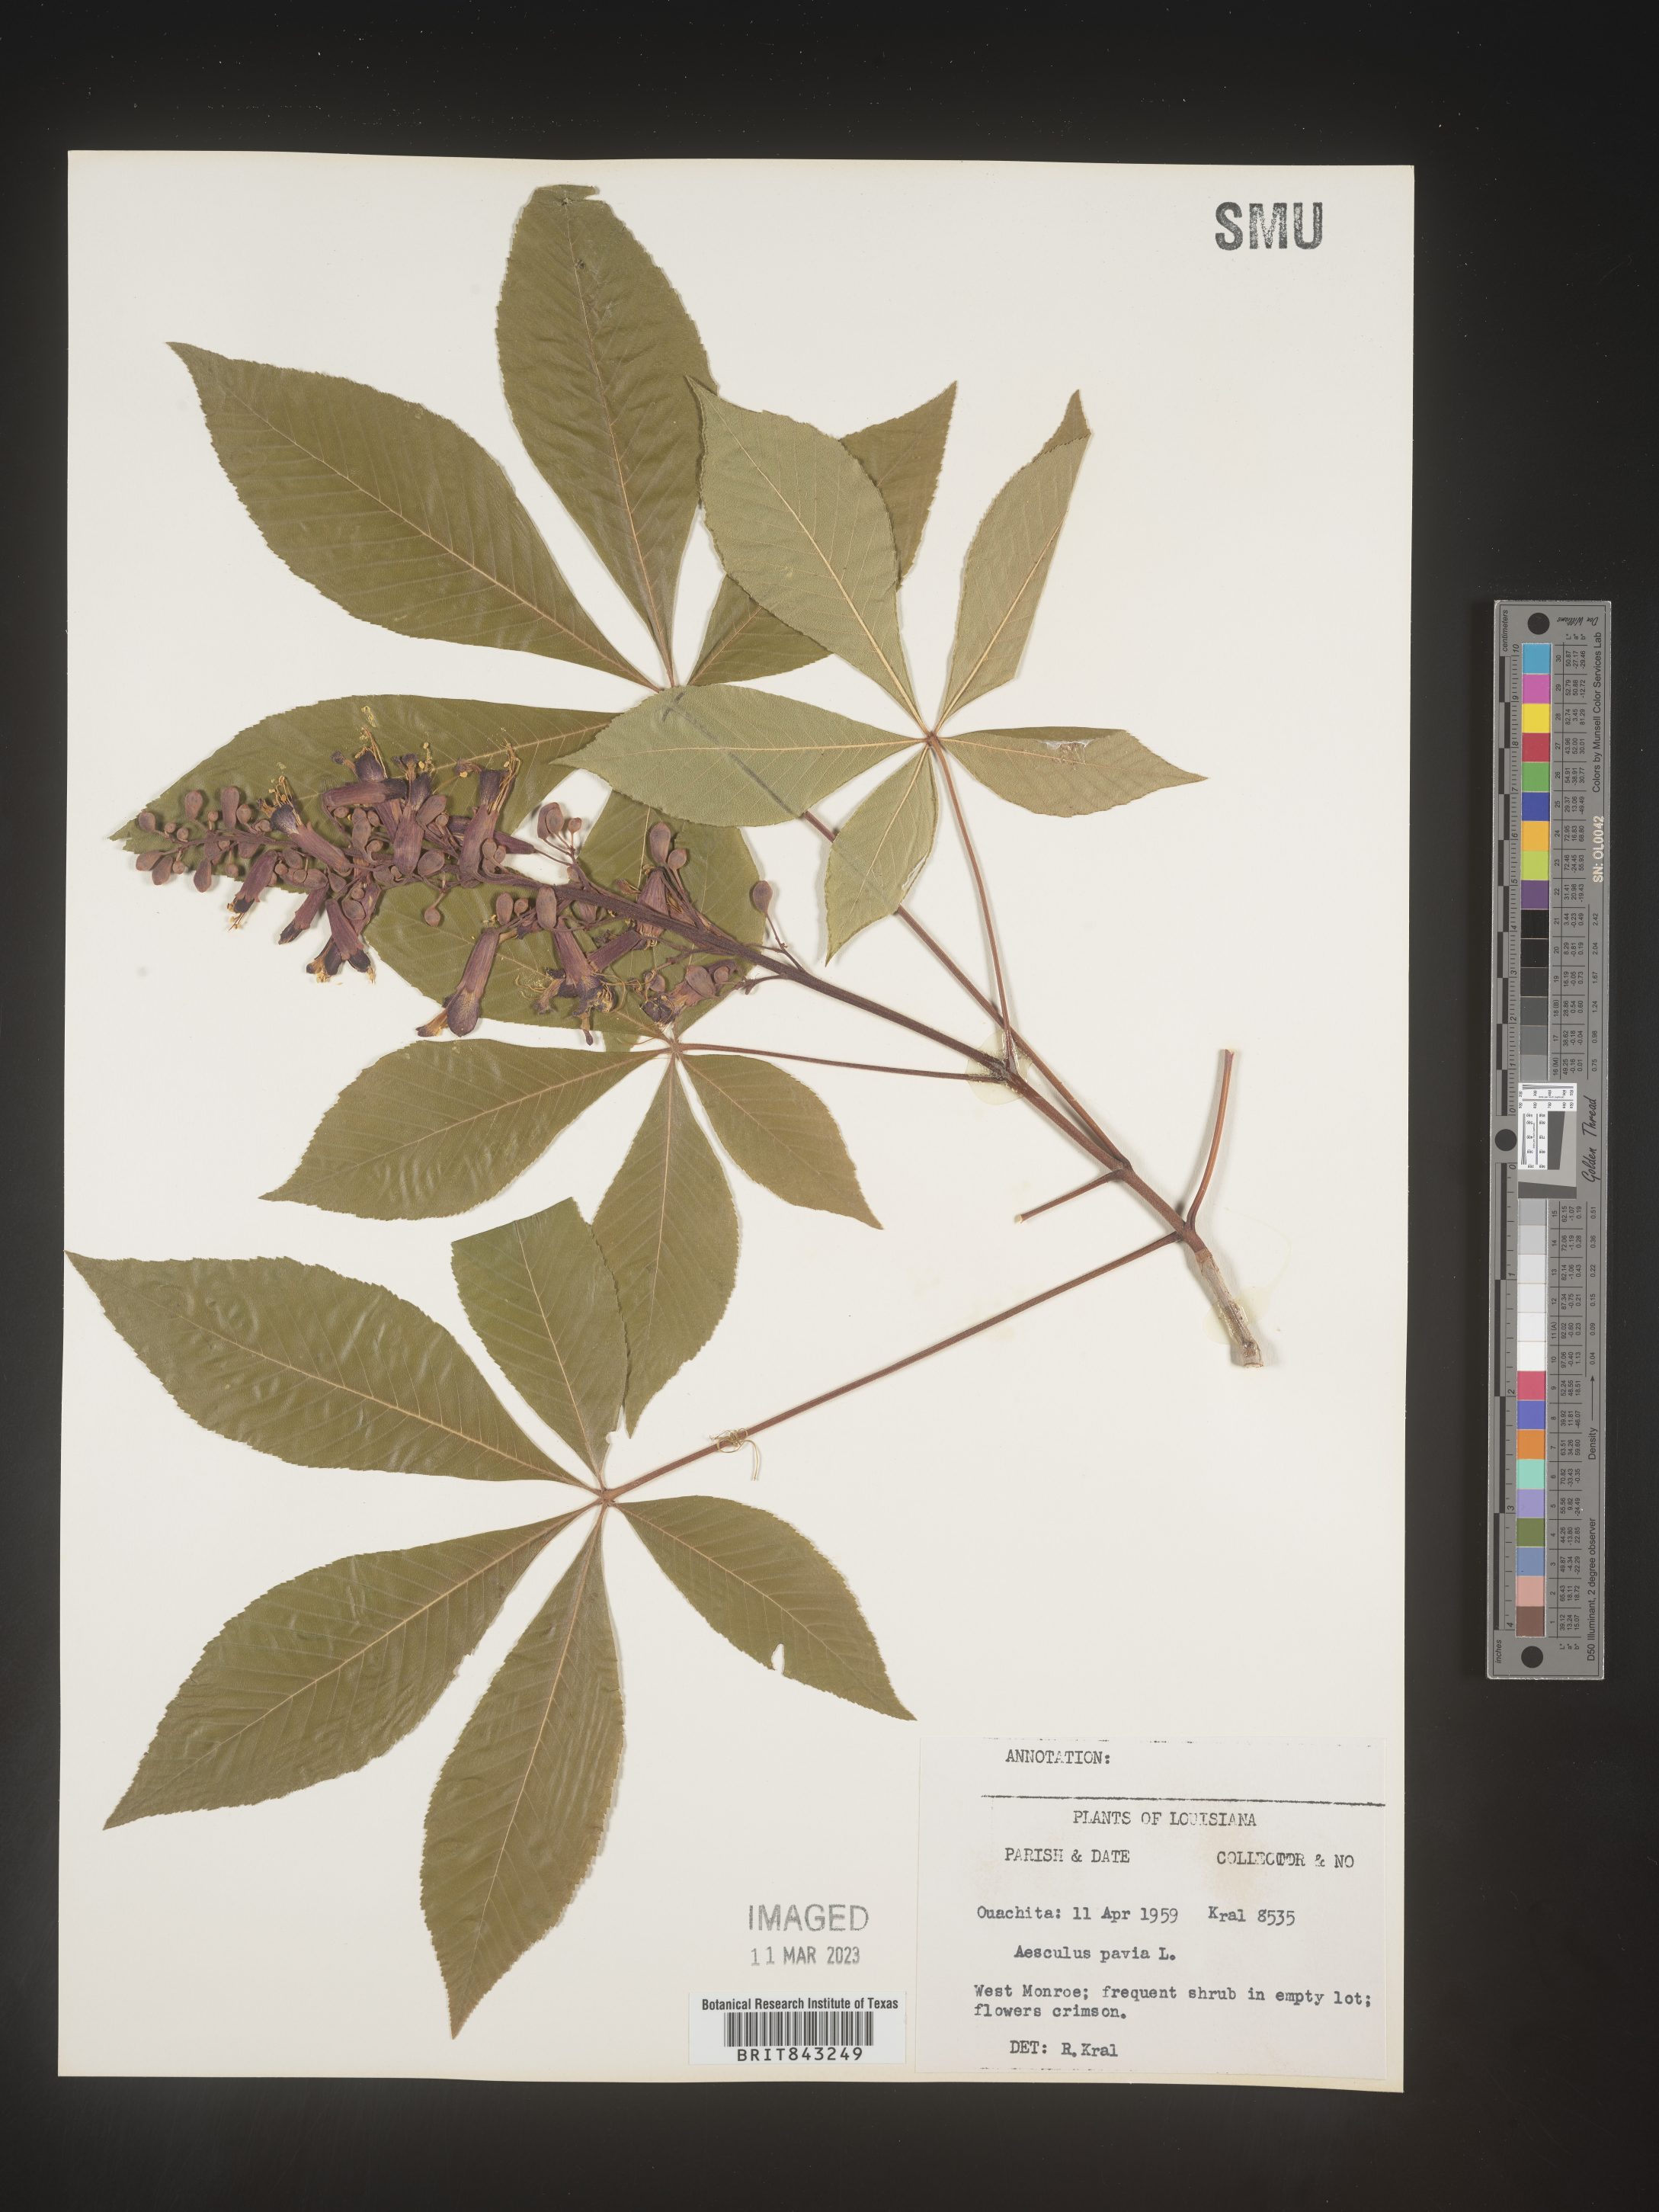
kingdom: Plantae
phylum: Tracheophyta
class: Magnoliopsida
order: Sapindales
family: Sapindaceae
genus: Aesculus
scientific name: Aesculus pavia
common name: Red buckeye
